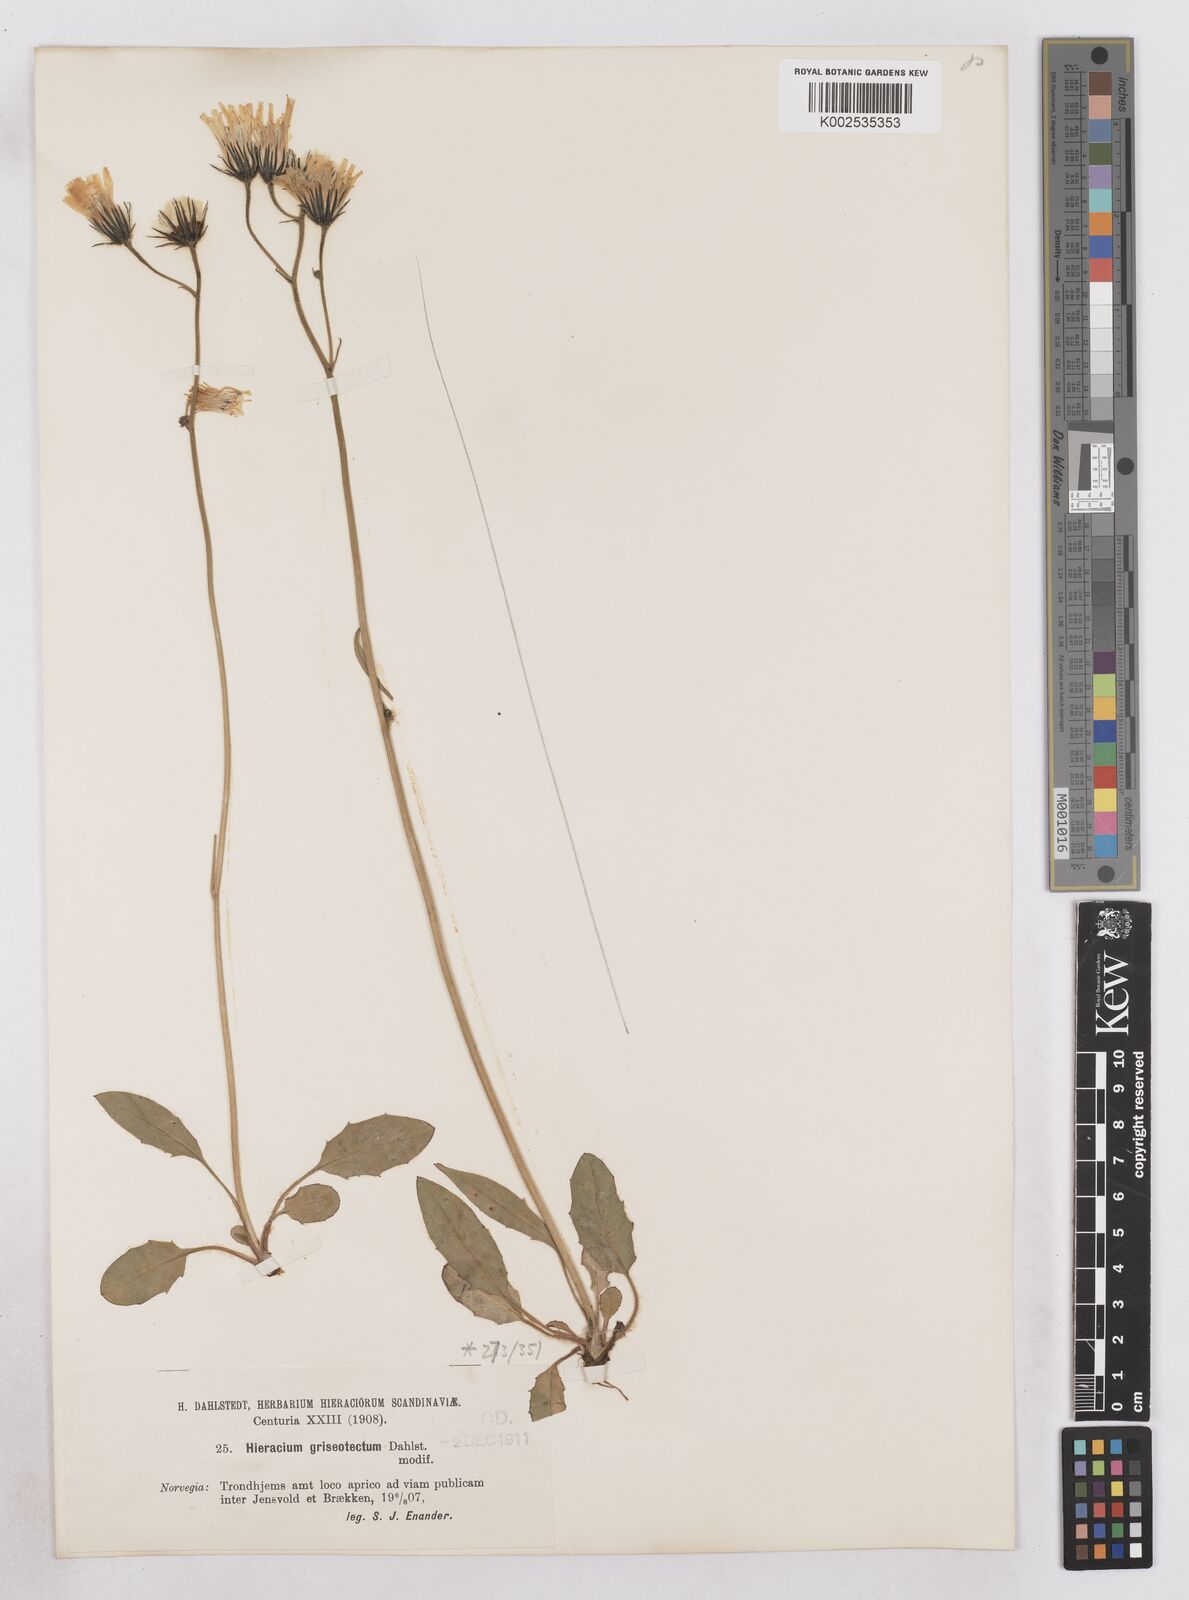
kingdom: Plantae
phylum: Tracheophyta
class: Magnoliopsida
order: Asterales
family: Asteraceae
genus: Hieracium
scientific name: Hieracium conspurcans
